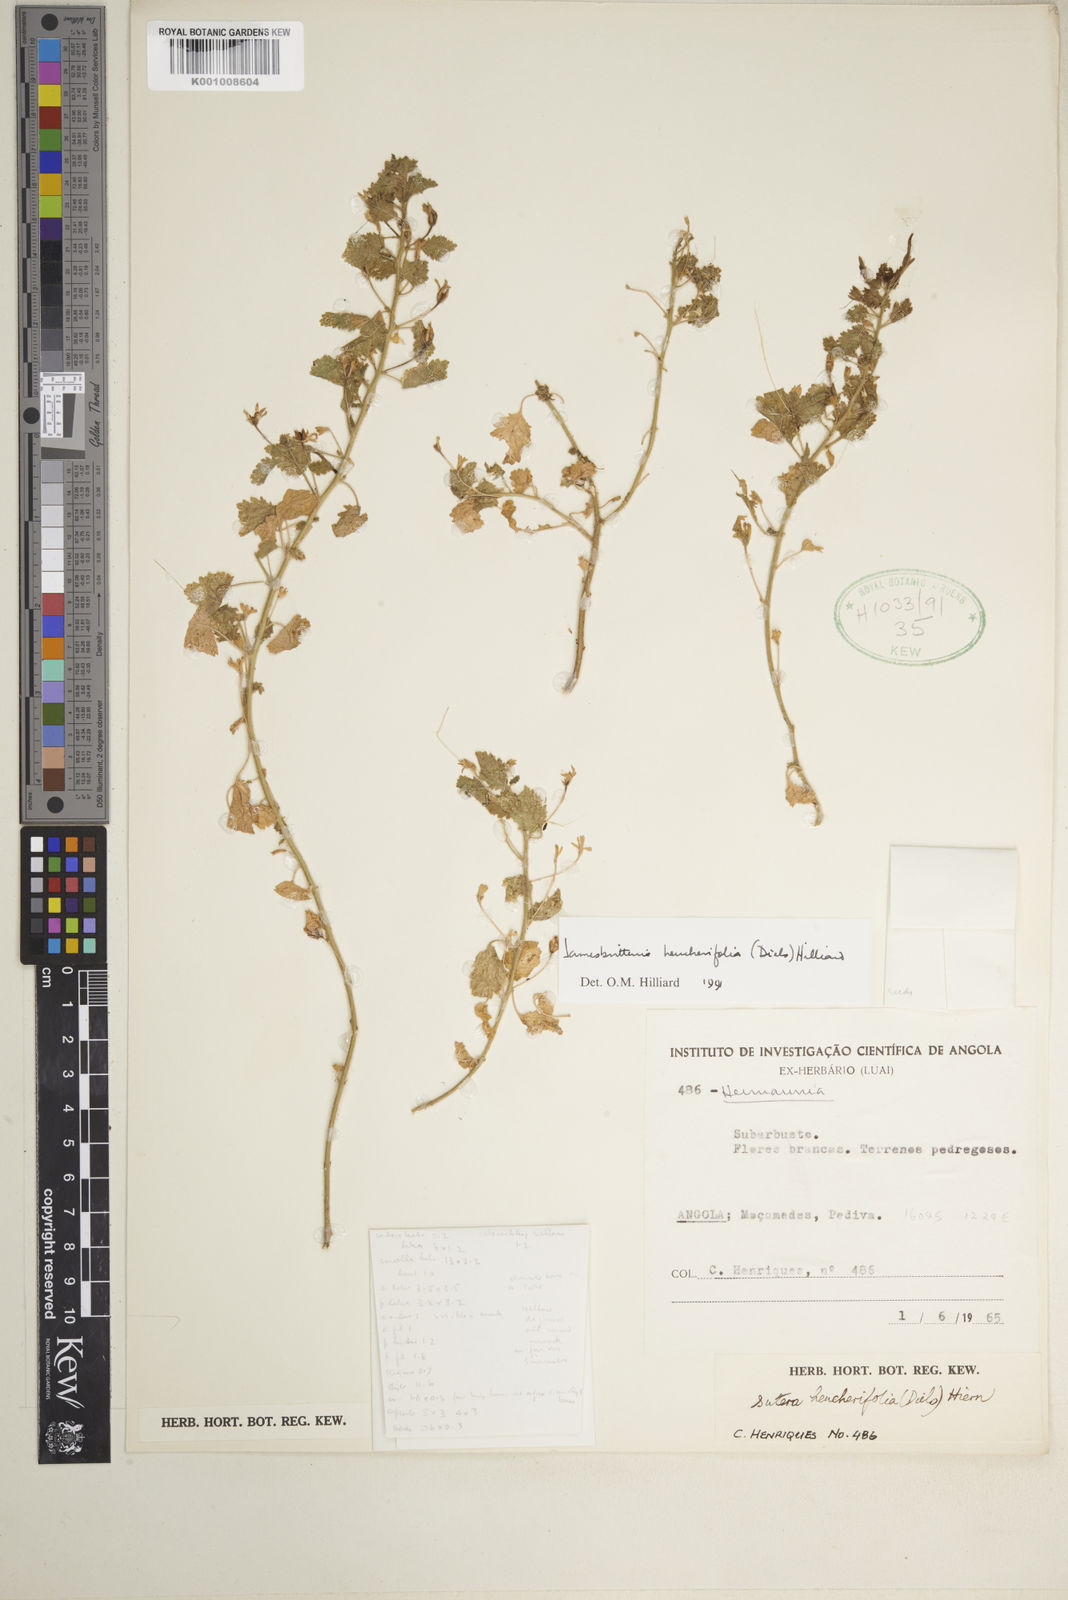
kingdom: Plantae
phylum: Tracheophyta
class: Magnoliopsida
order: Lamiales
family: Scrophulariaceae
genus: Jamesbrittenia
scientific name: Jamesbrittenia heucherifolia
